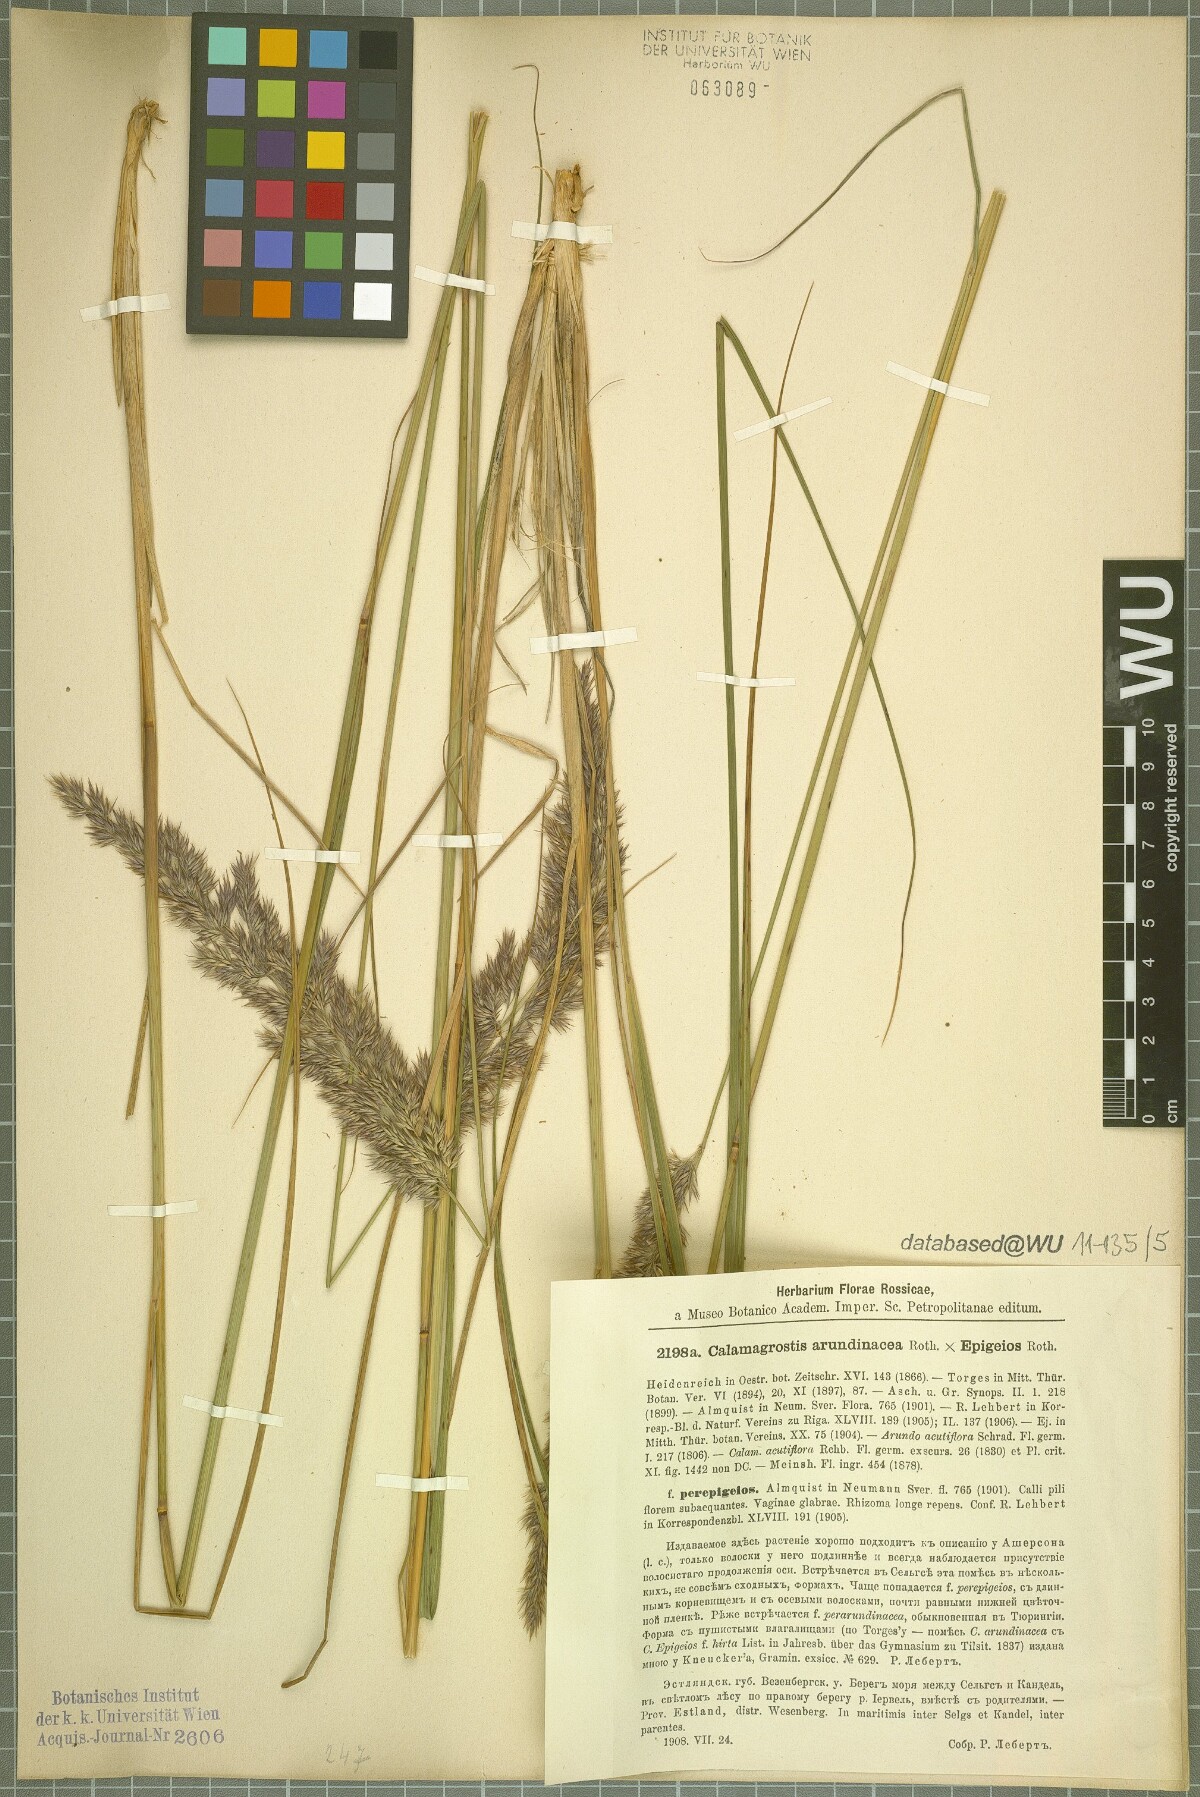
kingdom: Plantae
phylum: Tracheophyta
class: Liliopsida
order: Poales
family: Poaceae
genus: Calamagrostis
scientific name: Calamagrostis arundinacea
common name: Metskastik
